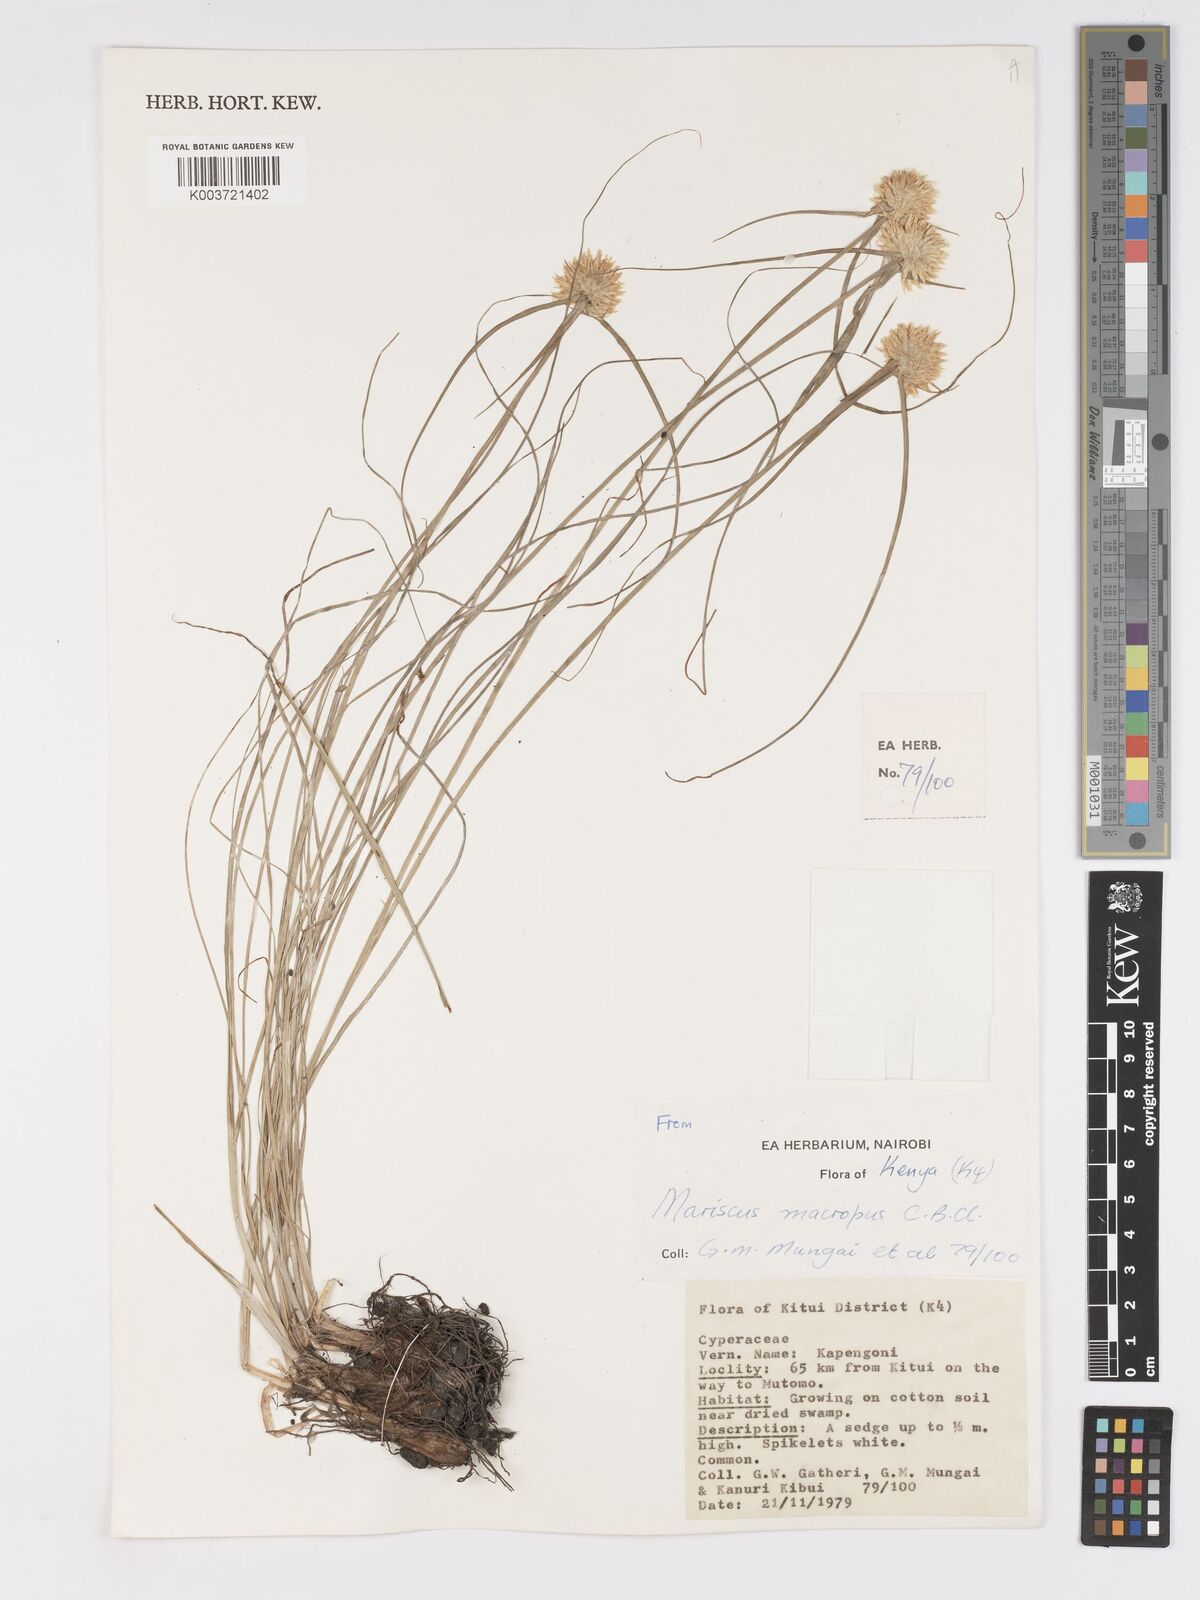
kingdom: Plantae
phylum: Tracheophyta
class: Liliopsida
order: Poales
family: Cyperaceae
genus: Cyperus
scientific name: Cyperus mollipes
